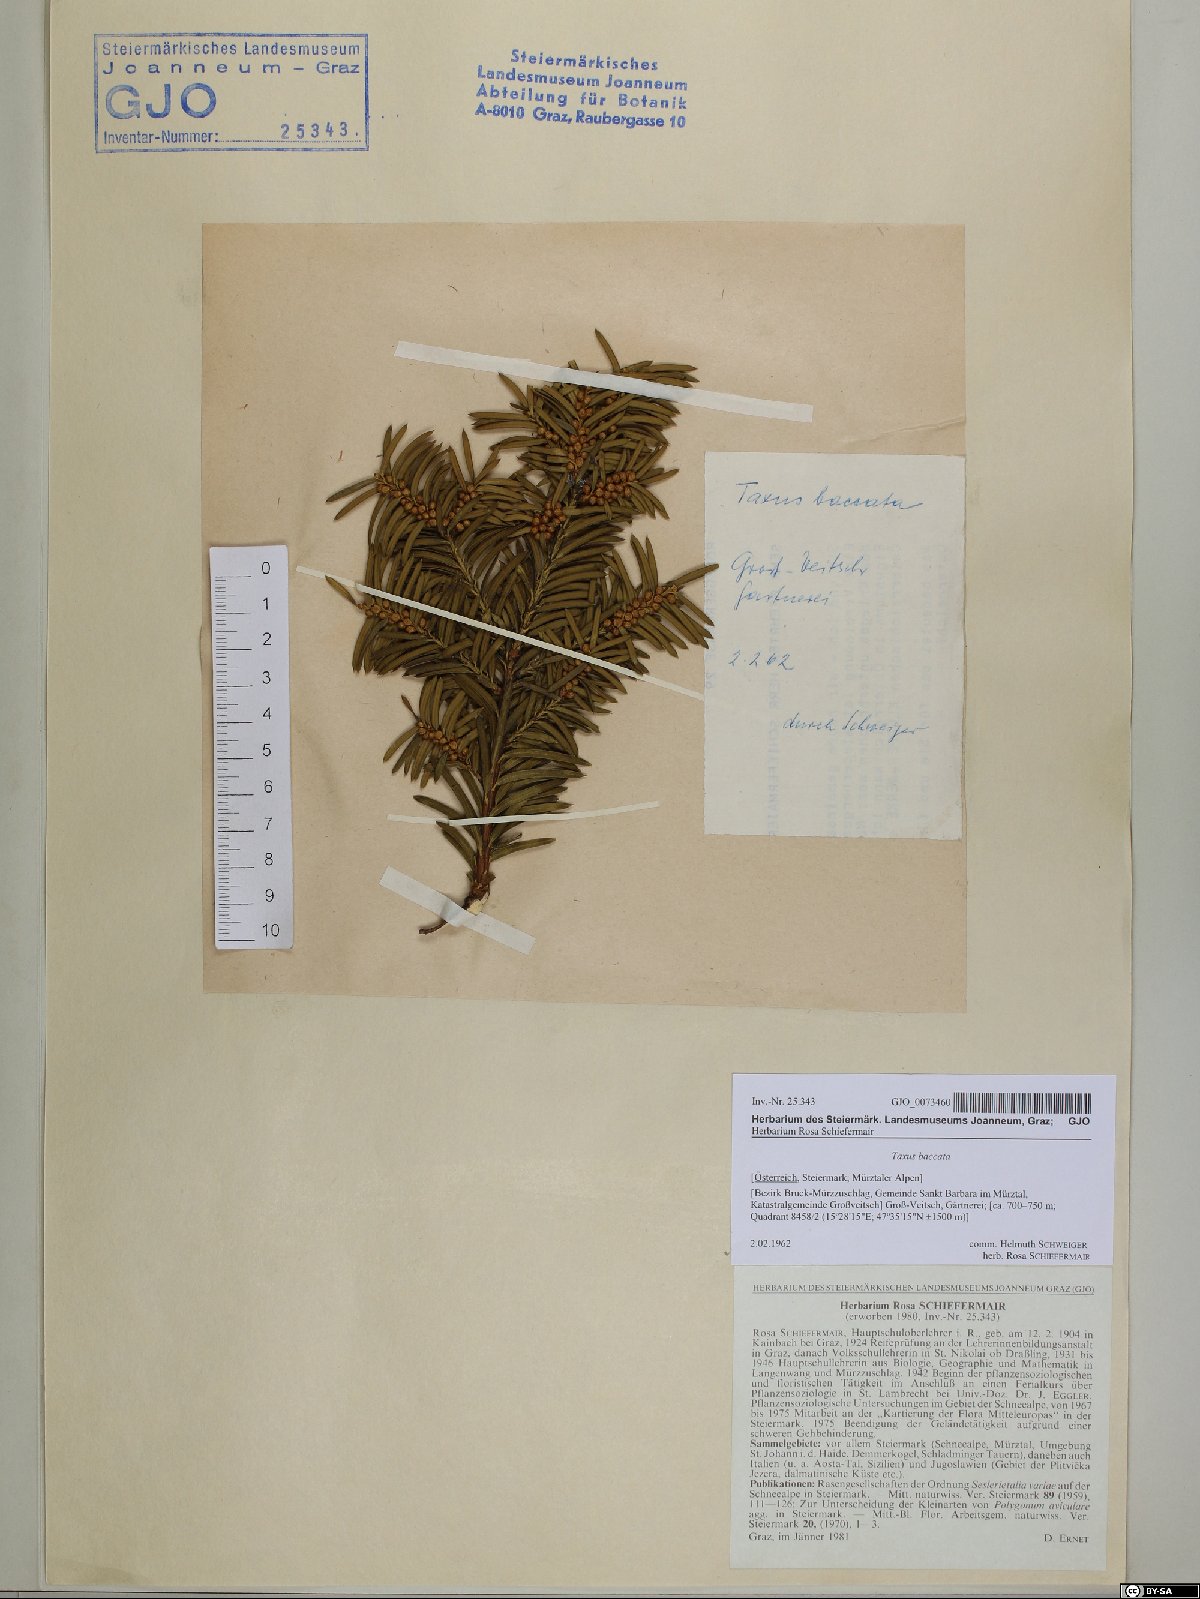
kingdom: Plantae
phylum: Tracheophyta
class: Pinopsida
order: Pinales
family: Taxaceae
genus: Taxus
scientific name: Taxus baccata
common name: Yew
